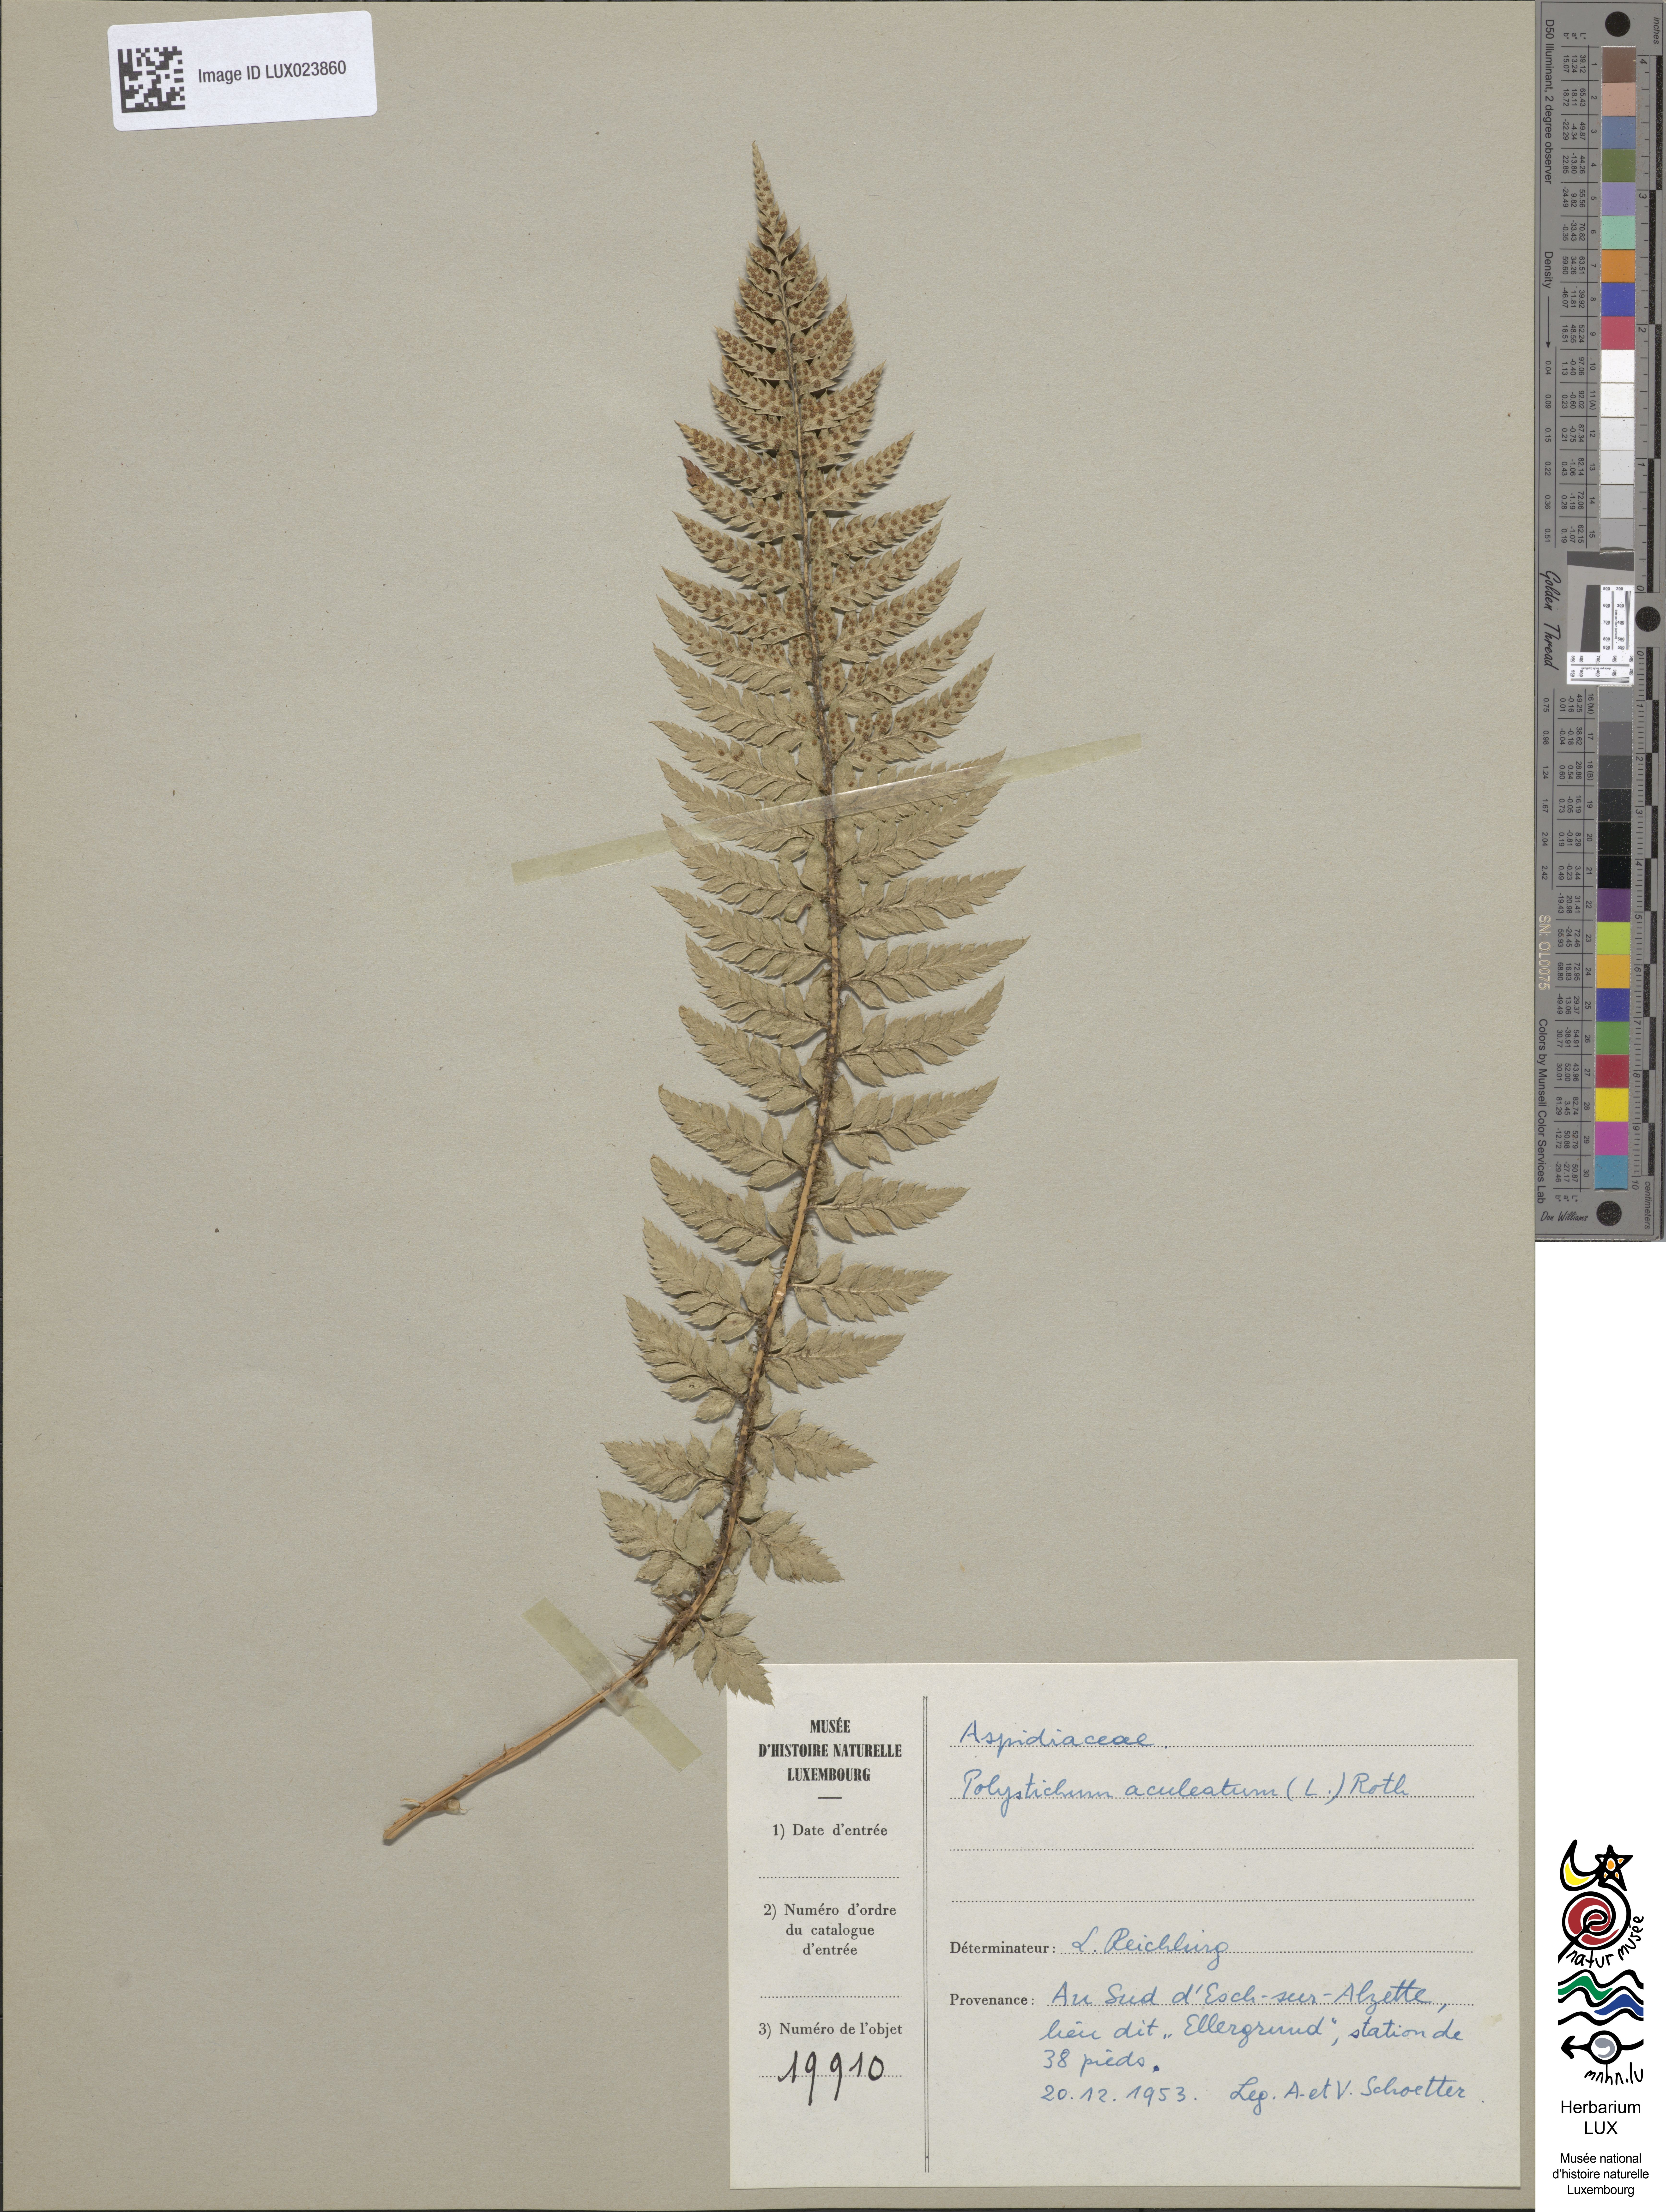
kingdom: Plantae
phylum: Tracheophyta
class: Polypodiopsida
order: Polypodiales
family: Dryopteridaceae
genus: Polystichum
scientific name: Polystichum aculeatum
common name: Hard shield-fern
